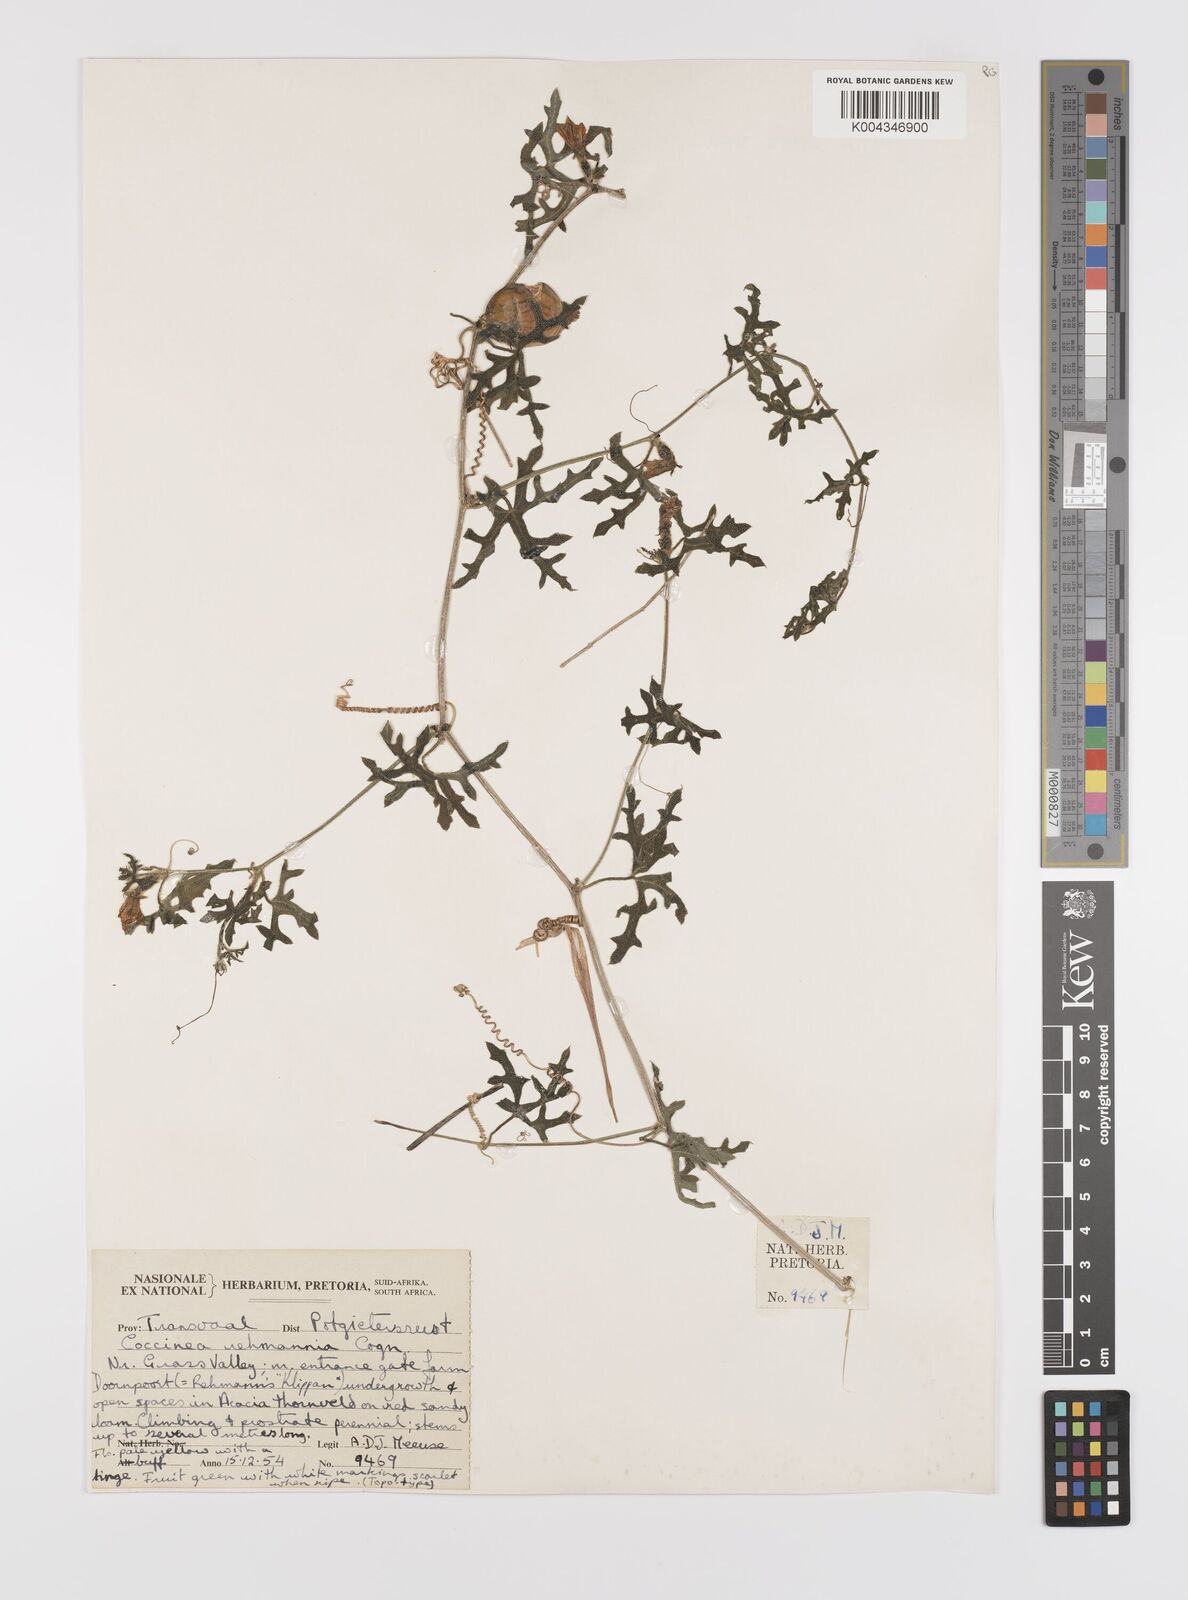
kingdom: Plantae
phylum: Tracheophyta
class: Magnoliopsida
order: Cucurbitales
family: Cucurbitaceae
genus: Coccinia
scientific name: Coccinia rehmannii
